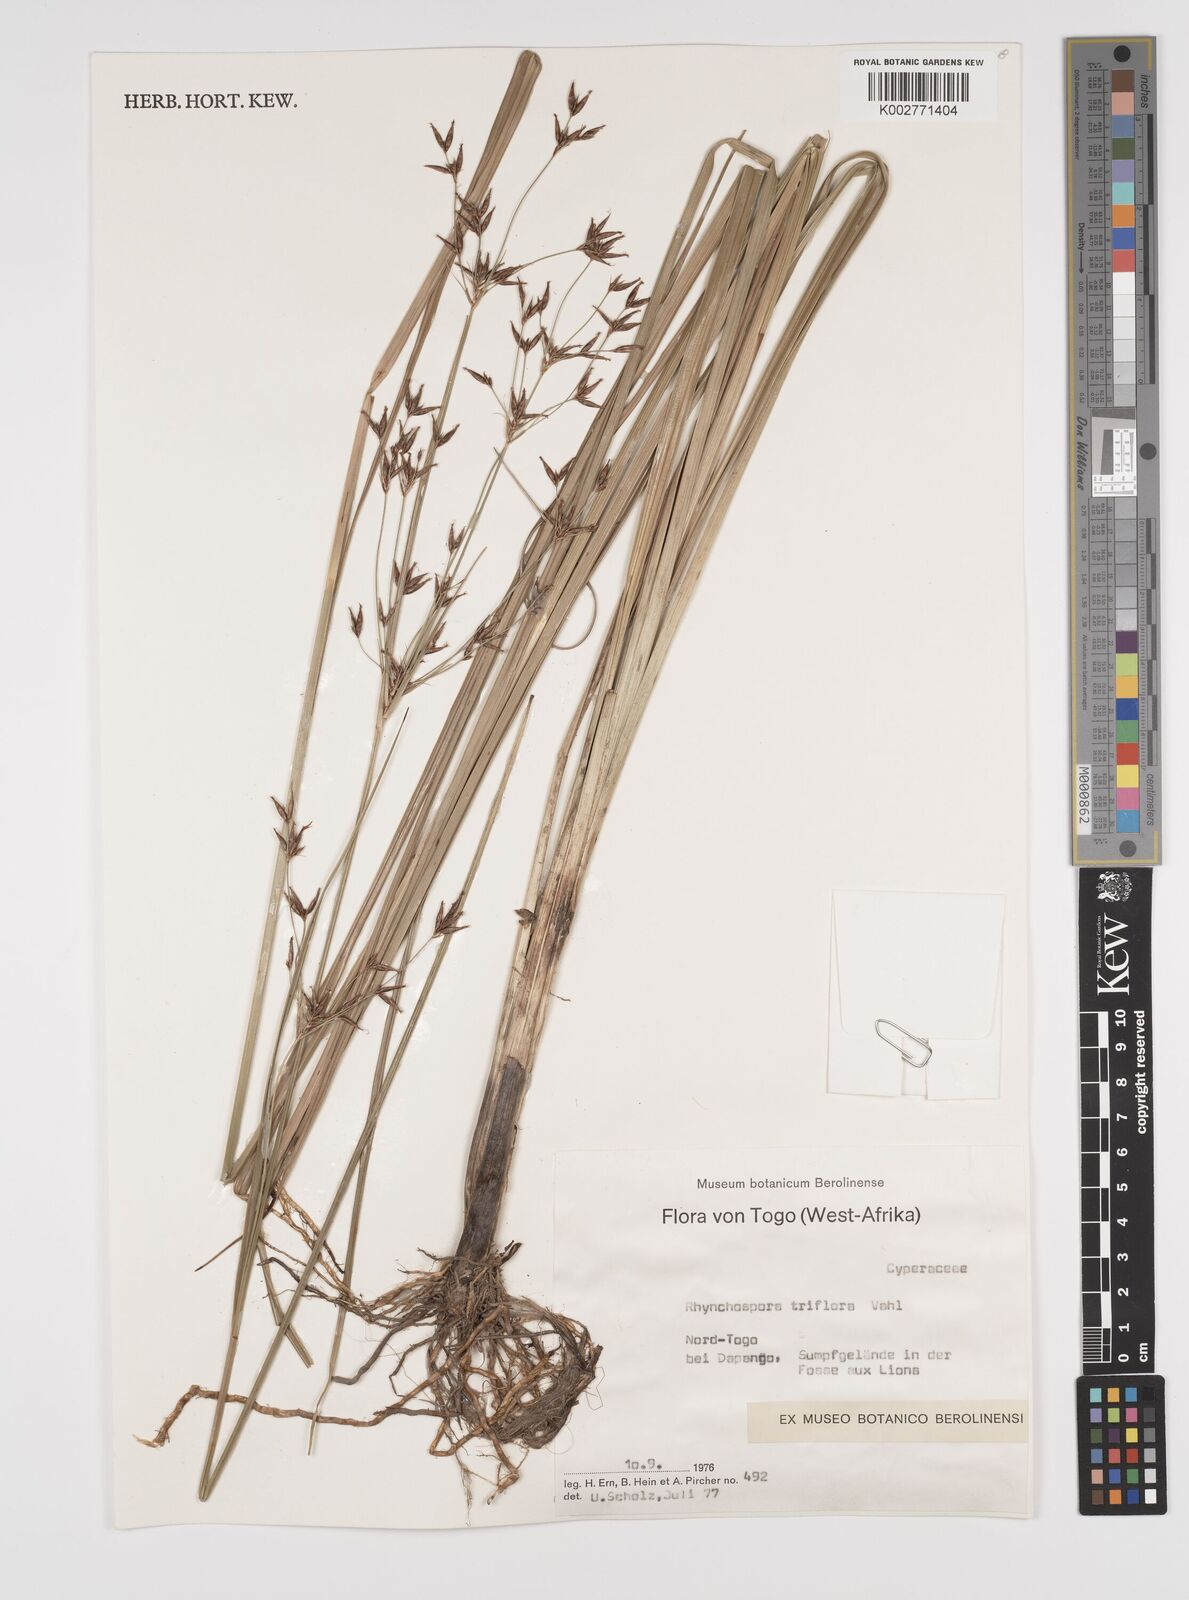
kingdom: Plantae
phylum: Tracheophyta
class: Liliopsida
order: Poales
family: Cyperaceae
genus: Rhynchospora
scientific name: Rhynchospora triflora
